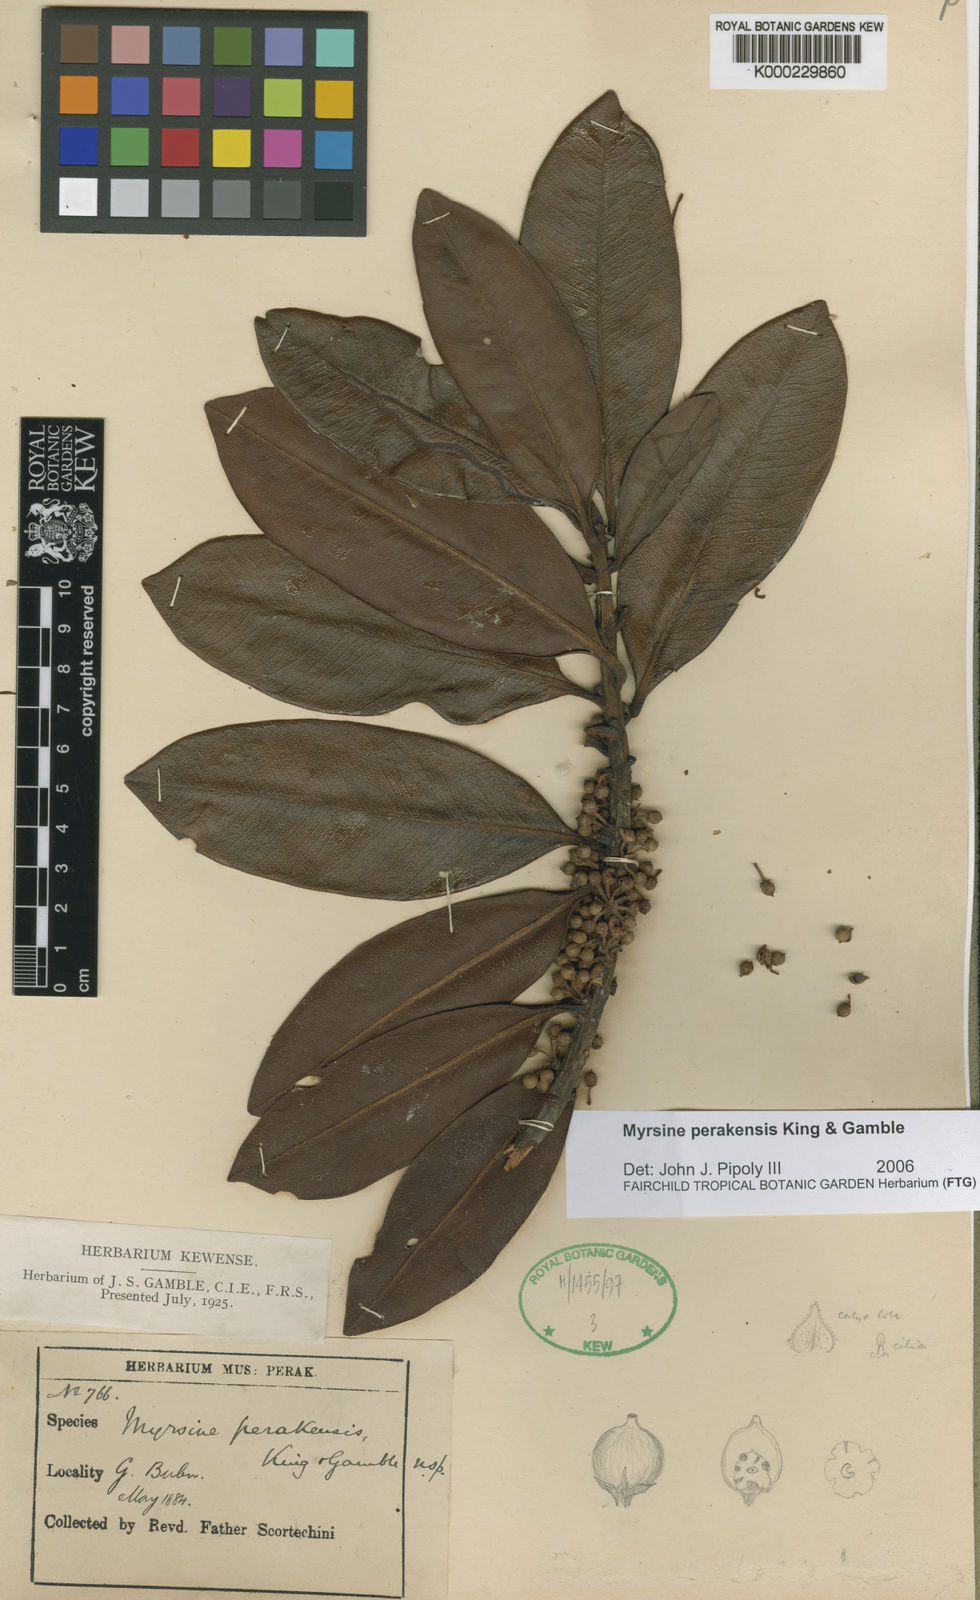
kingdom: Plantae
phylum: Tracheophyta
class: Magnoliopsida
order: Ericales
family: Primulaceae
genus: Myrsine
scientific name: Myrsine perakensis
